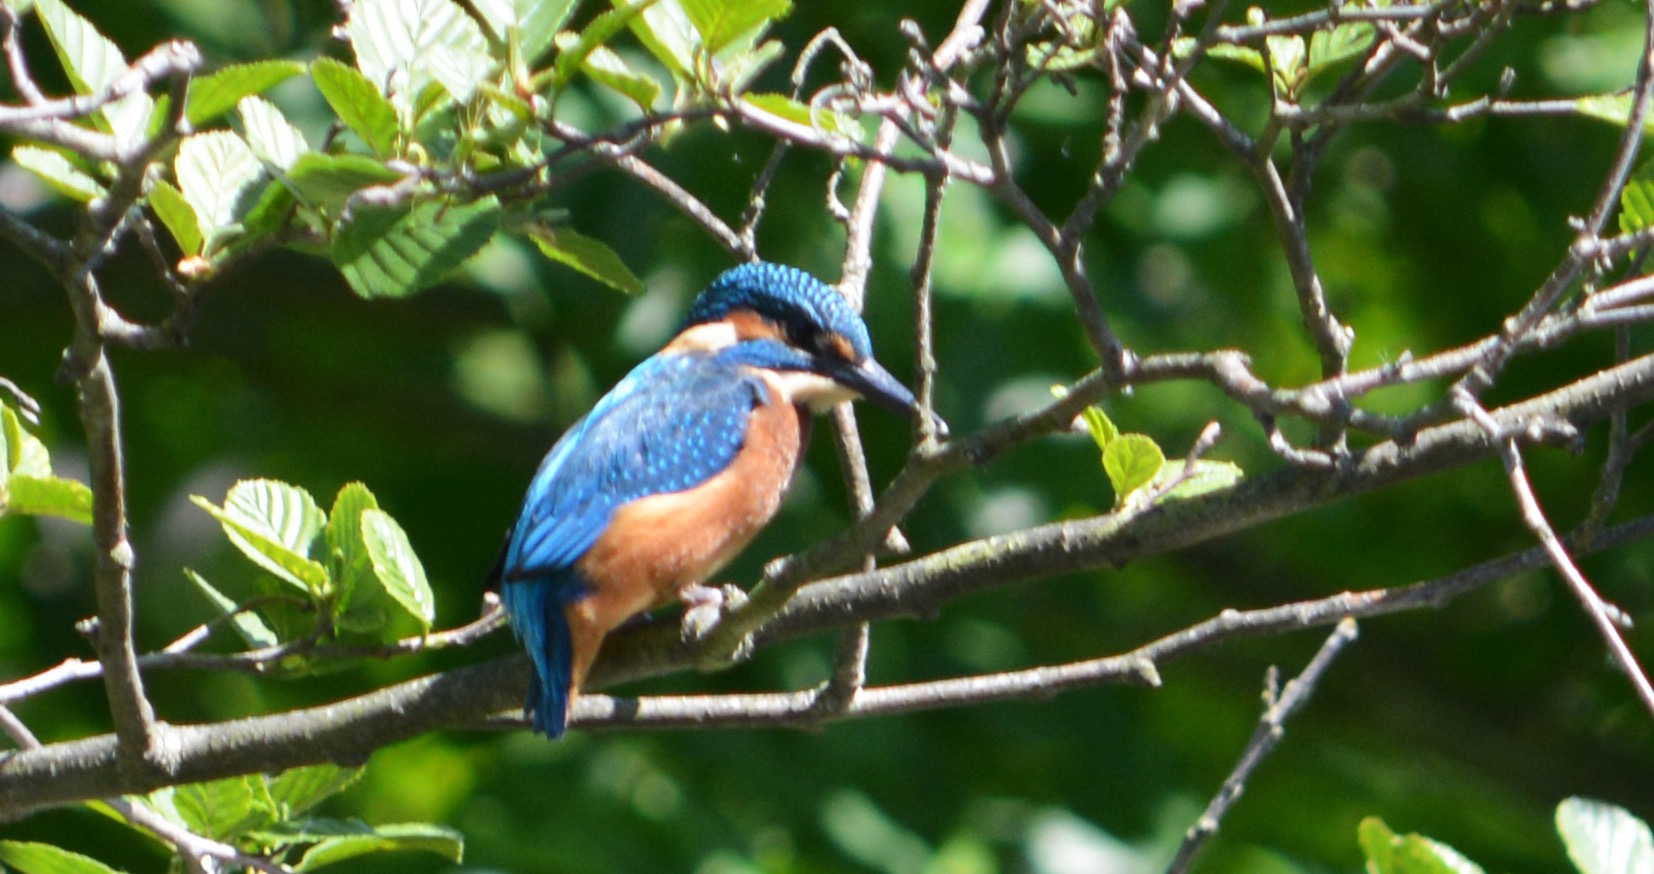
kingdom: Animalia
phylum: Chordata
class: Aves
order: Coraciiformes
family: Alcedinidae
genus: Alcedo
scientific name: Alcedo atthis
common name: Isfugl
